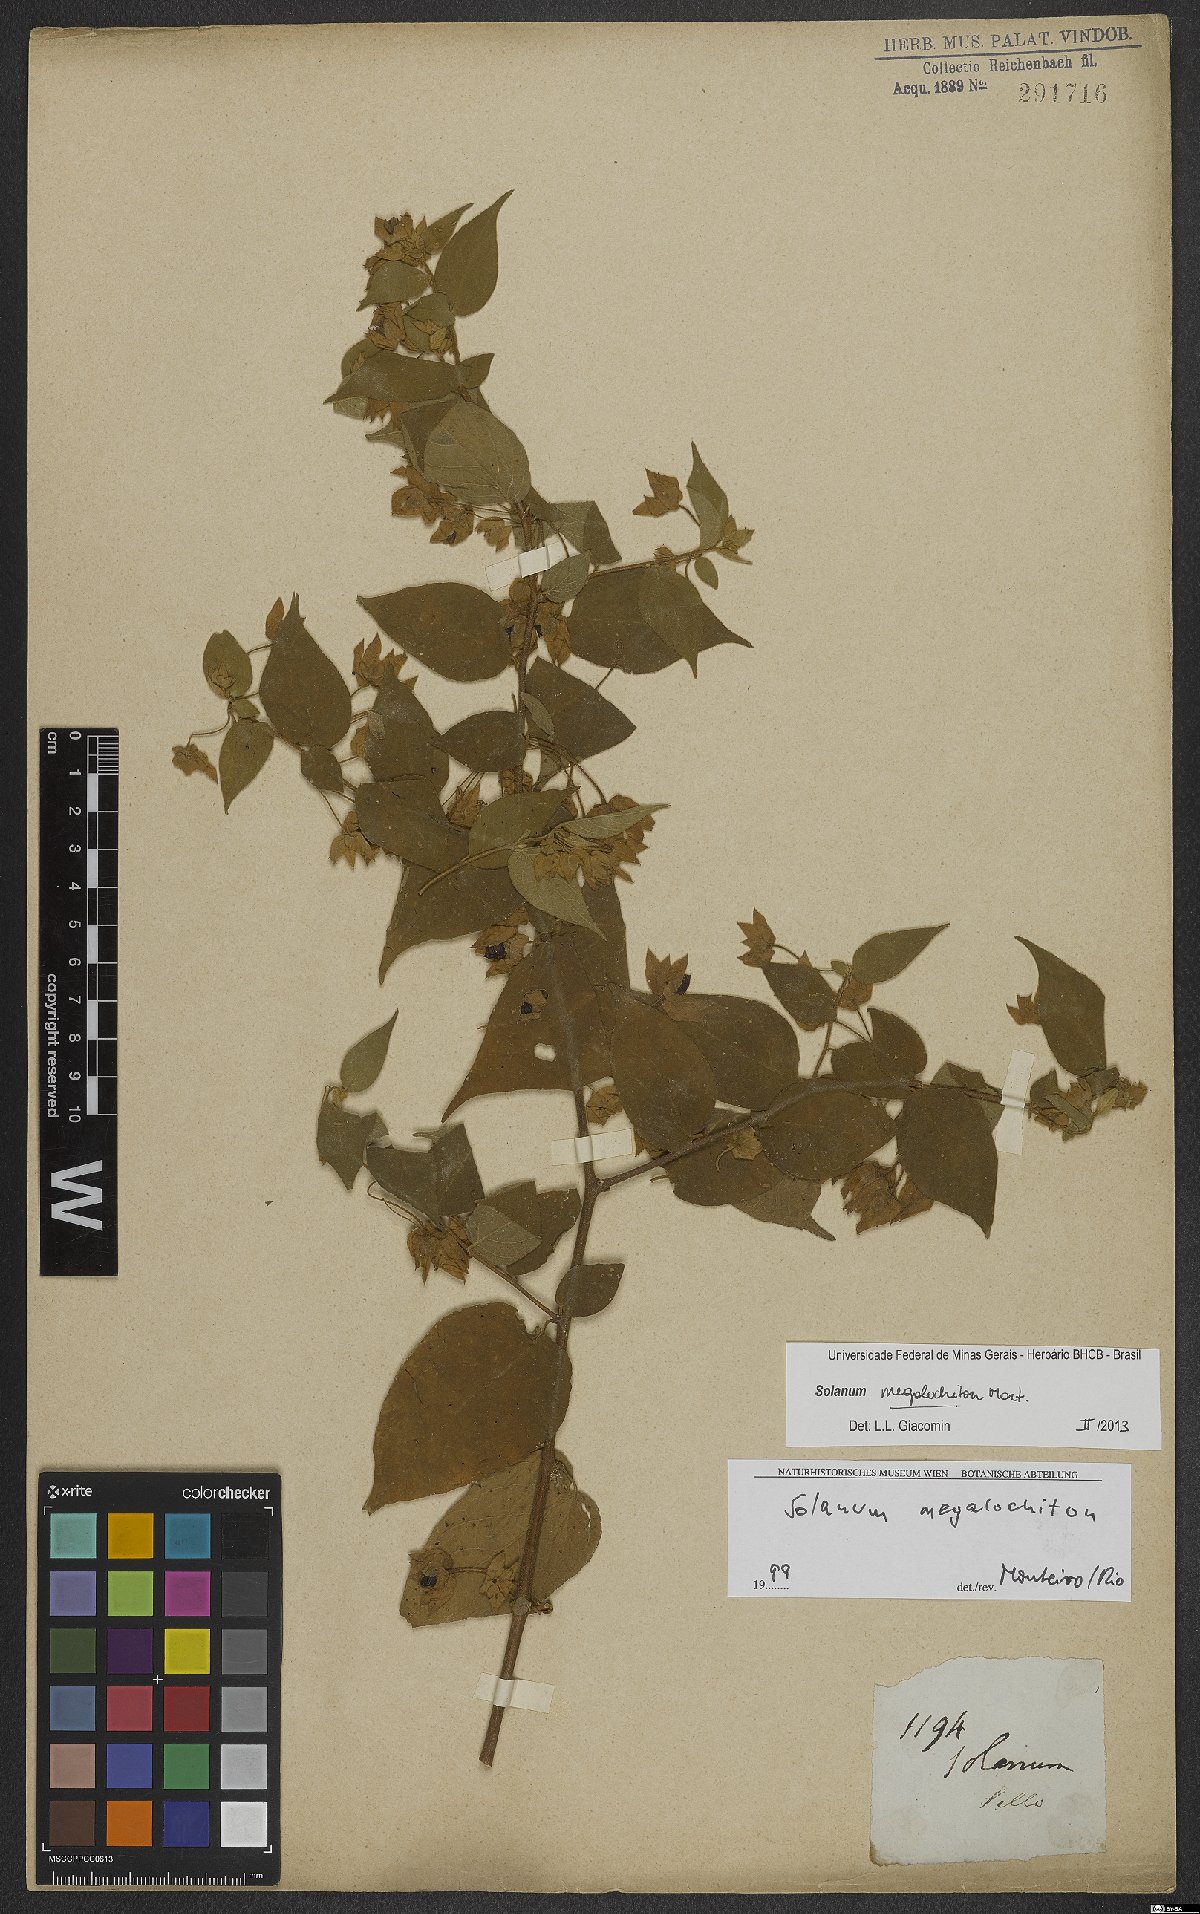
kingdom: Plantae
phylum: Tracheophyta
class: Magnoliopsida
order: Solanales
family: Solanaceae
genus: Solanum
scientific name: Solanum megalochiton
